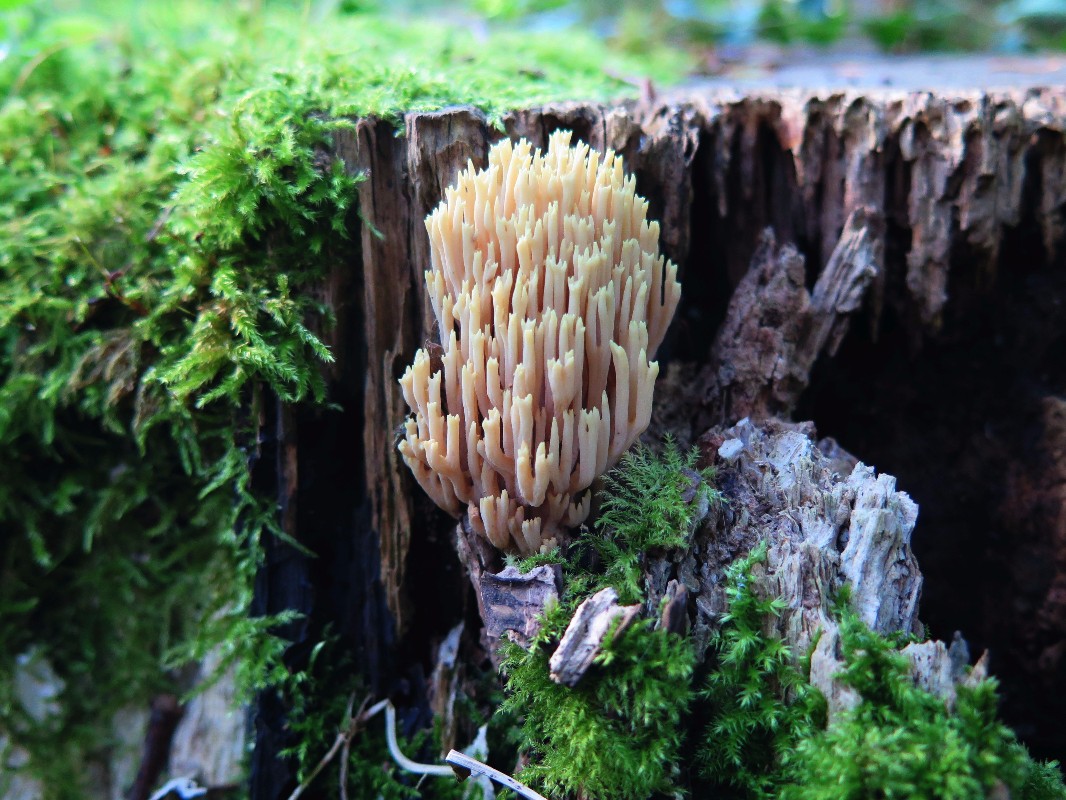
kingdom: Fungi
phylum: Basidiomycota
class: Agaricomycetes
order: Gomphales
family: Gomphaceae
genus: Ramaria
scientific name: Ramaria stricta
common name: rank koralsvamp
